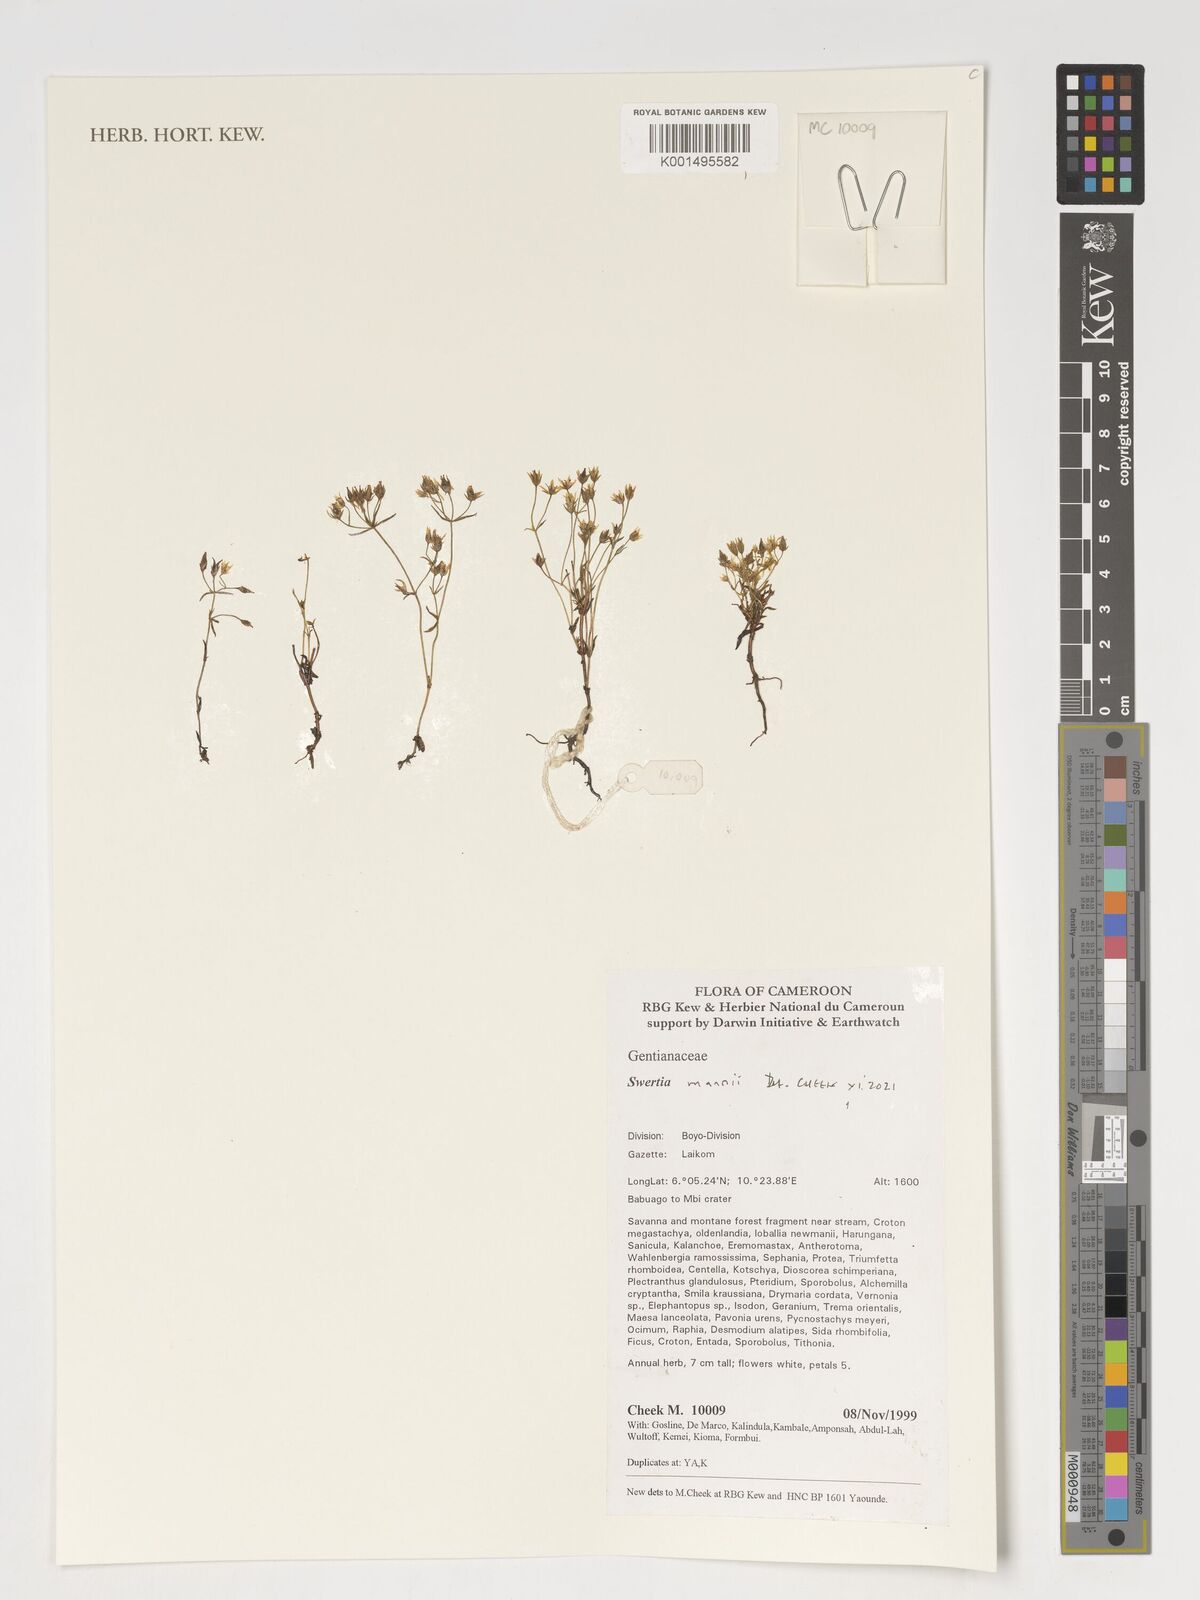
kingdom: Plantae
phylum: Tracheophyta
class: Magnoliopsida
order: Gentianales
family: Gentianaceae
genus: Swertia
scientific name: Swertia mannii
